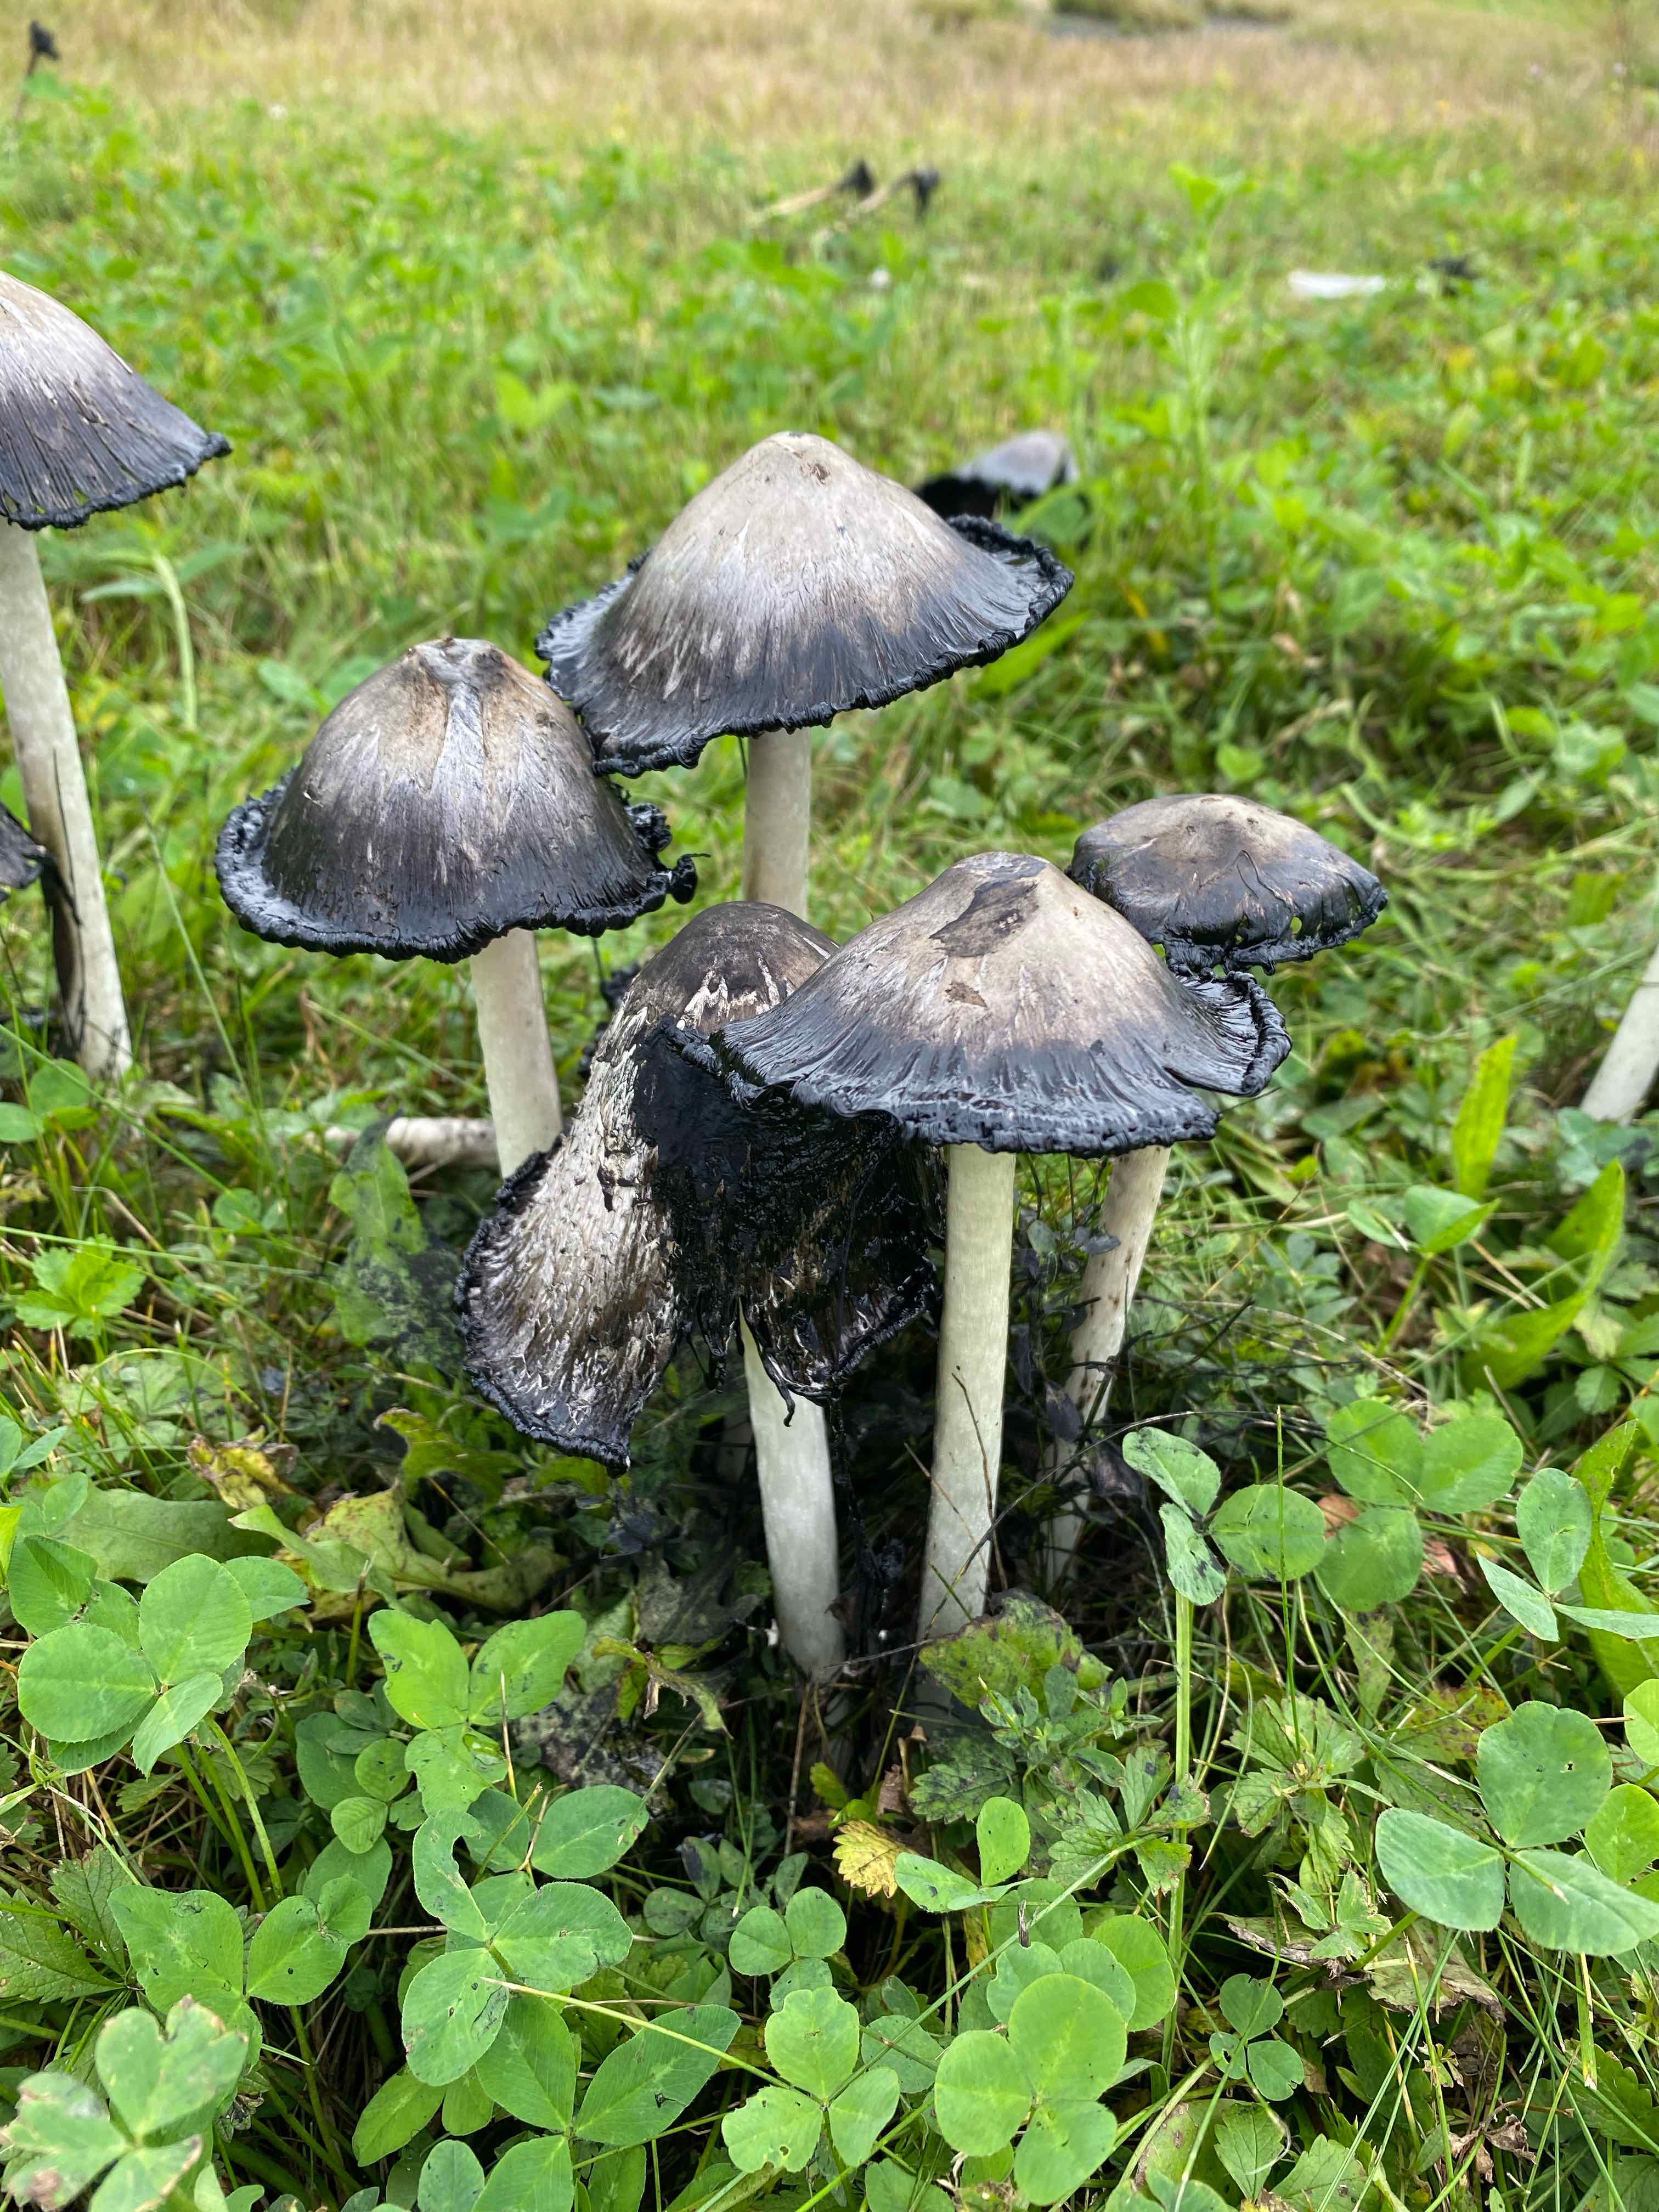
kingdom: Fungi
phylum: Basidiomycota
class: Agaricomycetes
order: Agaricales
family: Agaricaceae
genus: Coprinus
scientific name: Coprinus comatus
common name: stor parykhat
